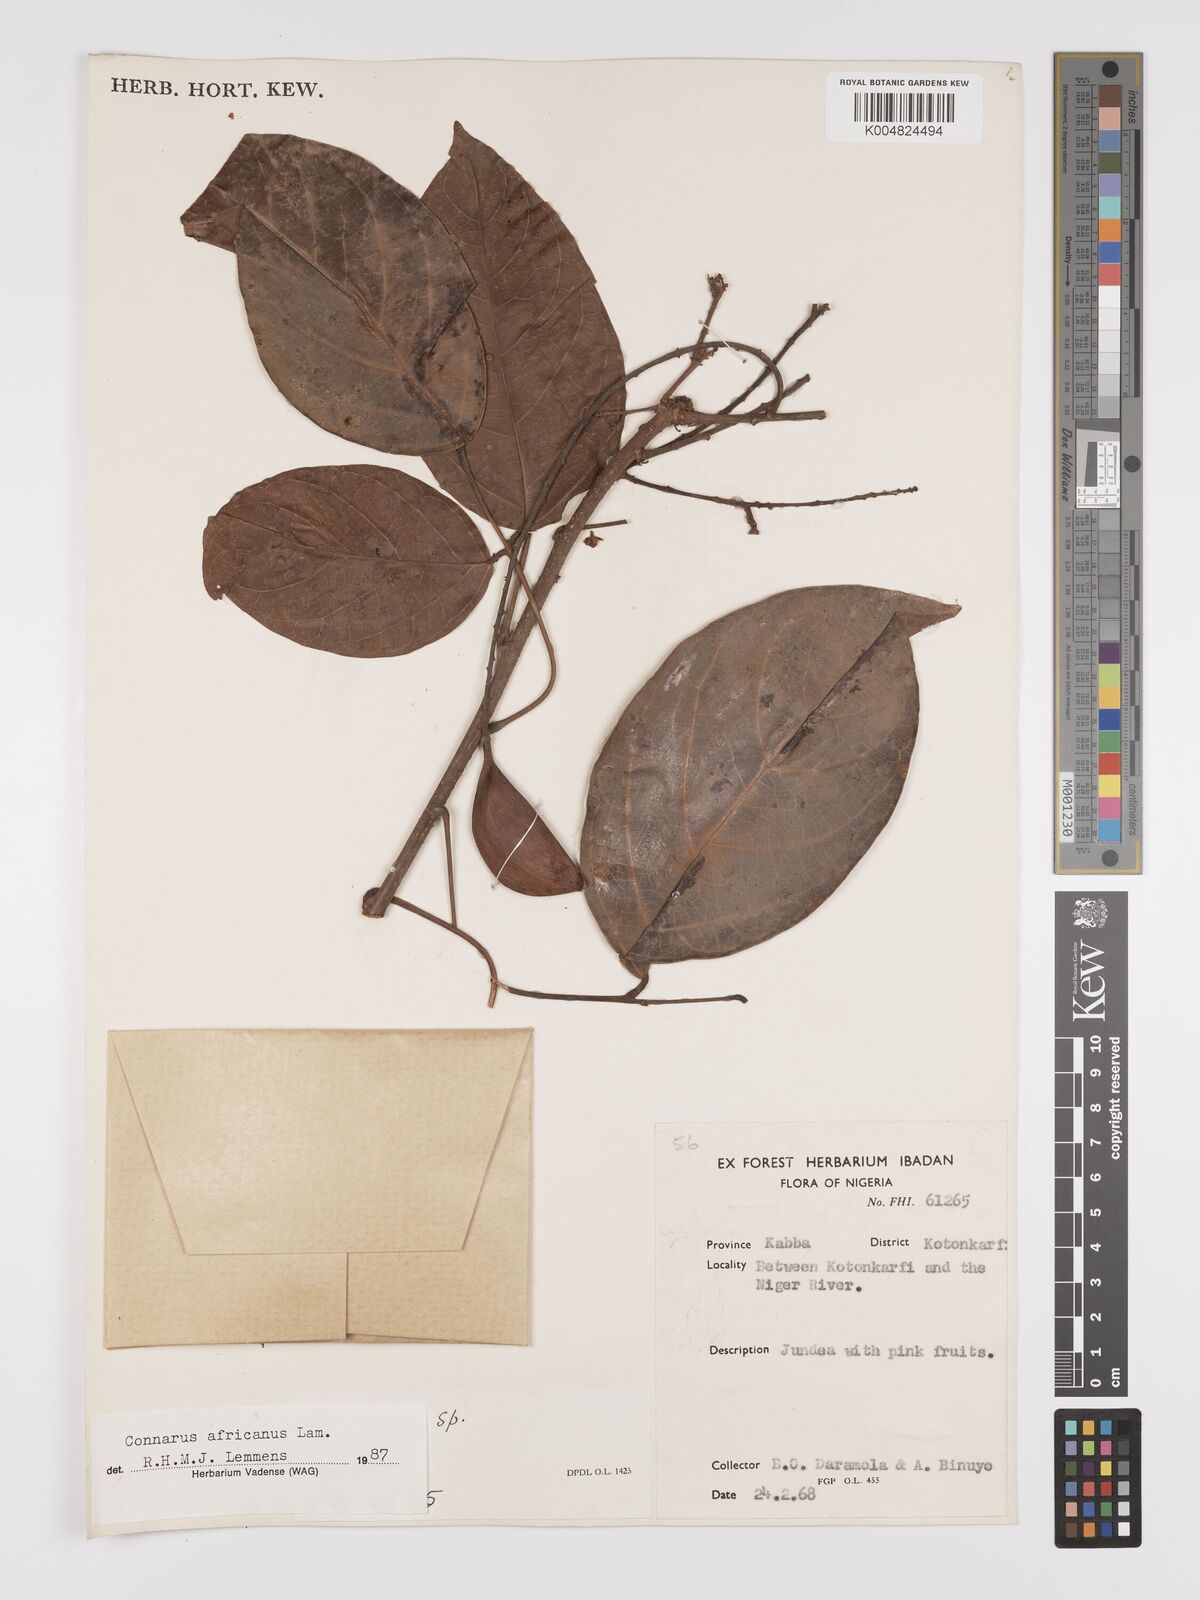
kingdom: Plantae
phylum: Tracheophyta
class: Magnoliopsida
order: Oxalidales
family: Connaraceae
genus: Connarus
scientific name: Connarus africanus
